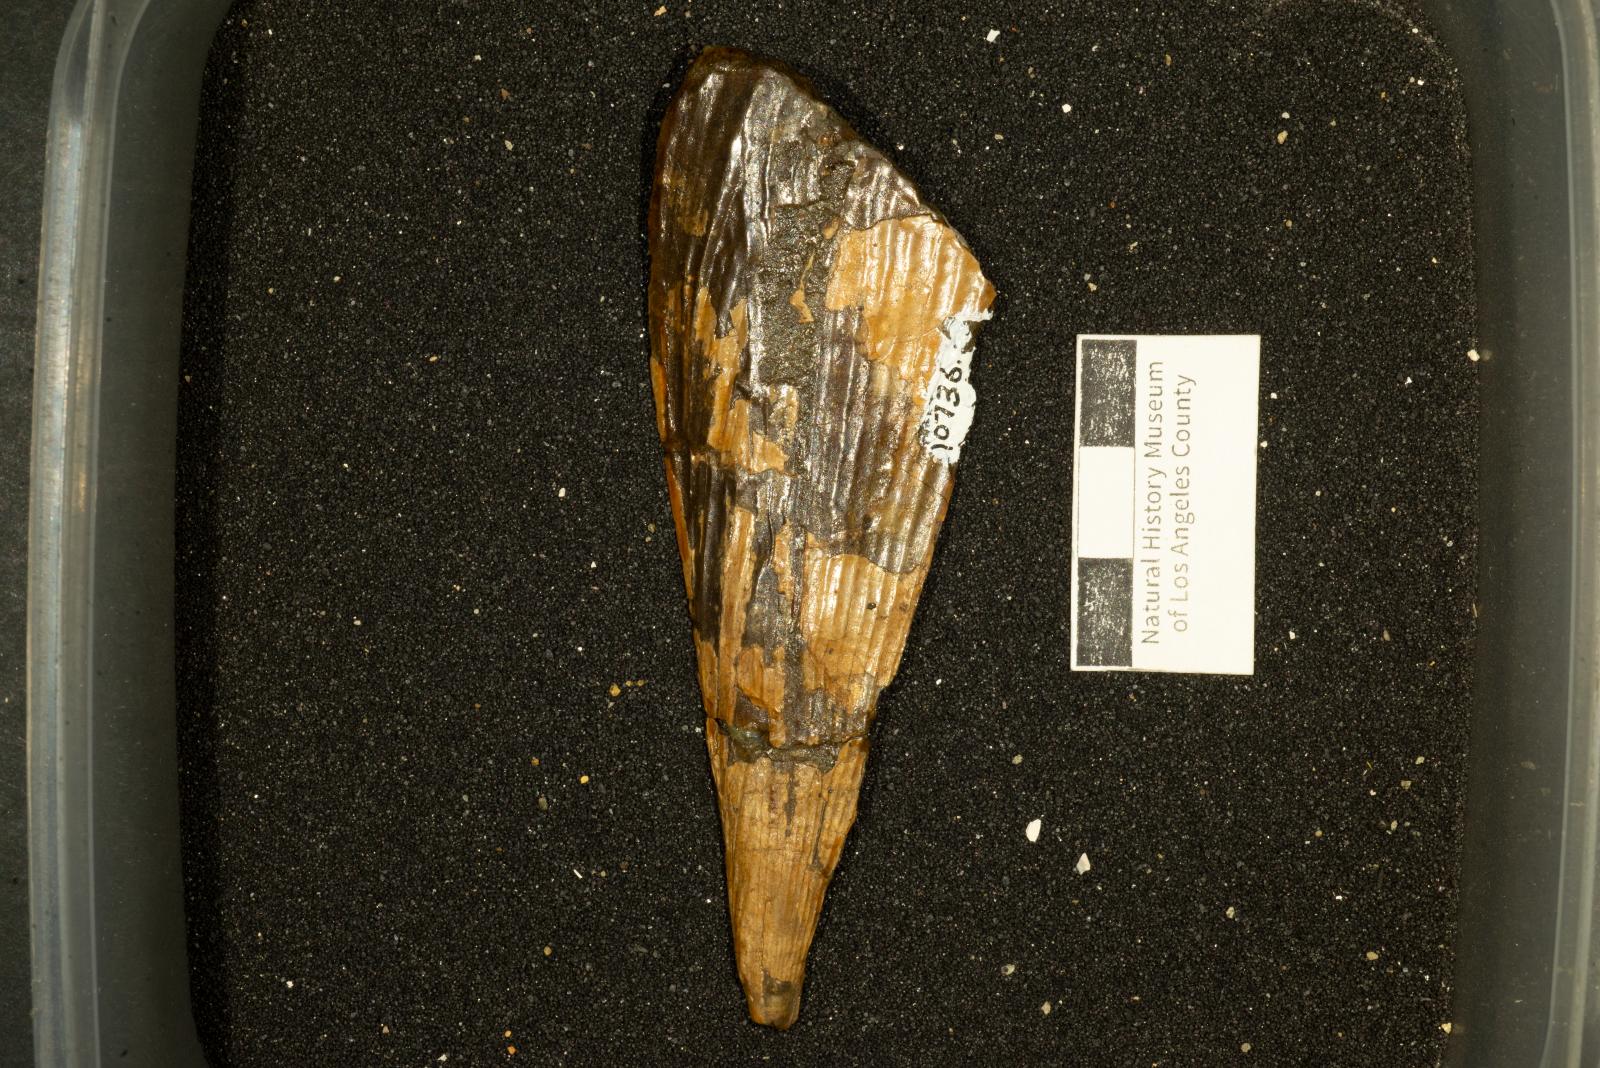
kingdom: Animalia
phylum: Mollusca
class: Bivalvia
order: Ostreida
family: Pinnidae
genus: Pinna
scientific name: Pinna
